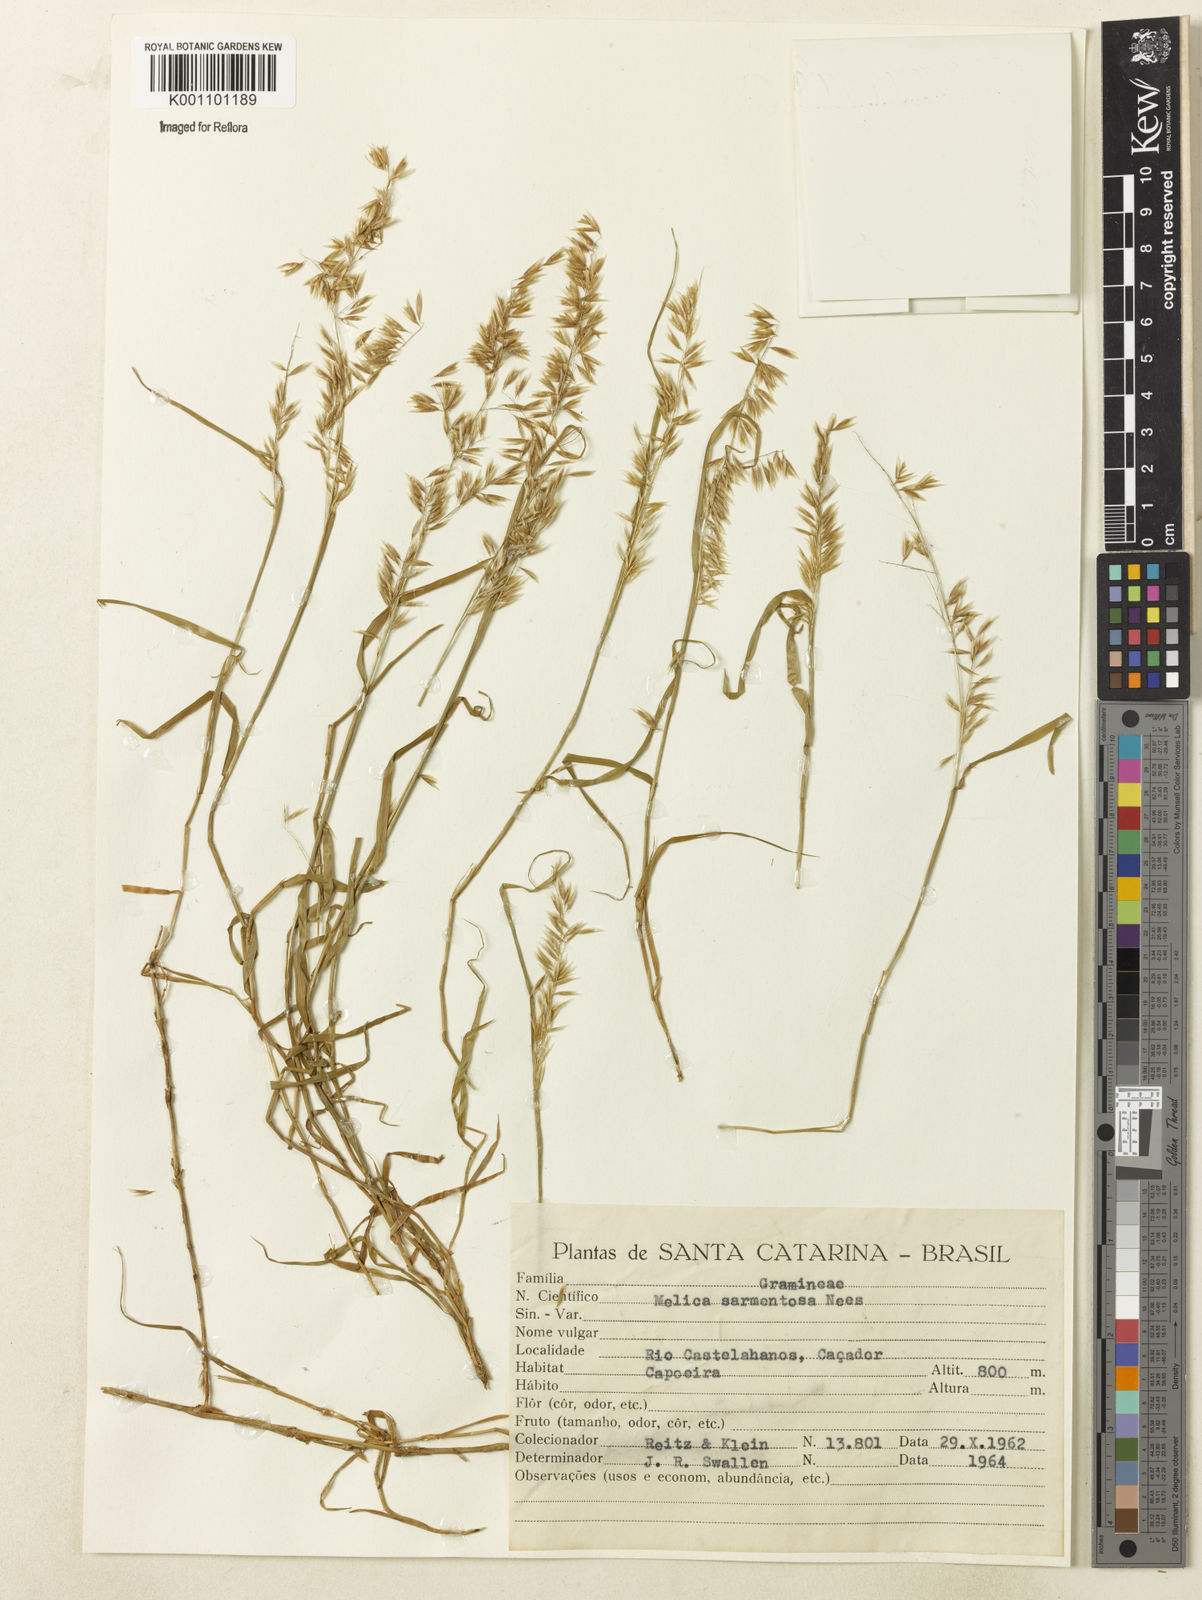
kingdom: Plantae
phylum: Tracheophyta
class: Liliopsida
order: Poales
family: Poaceae
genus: Melica
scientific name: Melica sarmentosa
